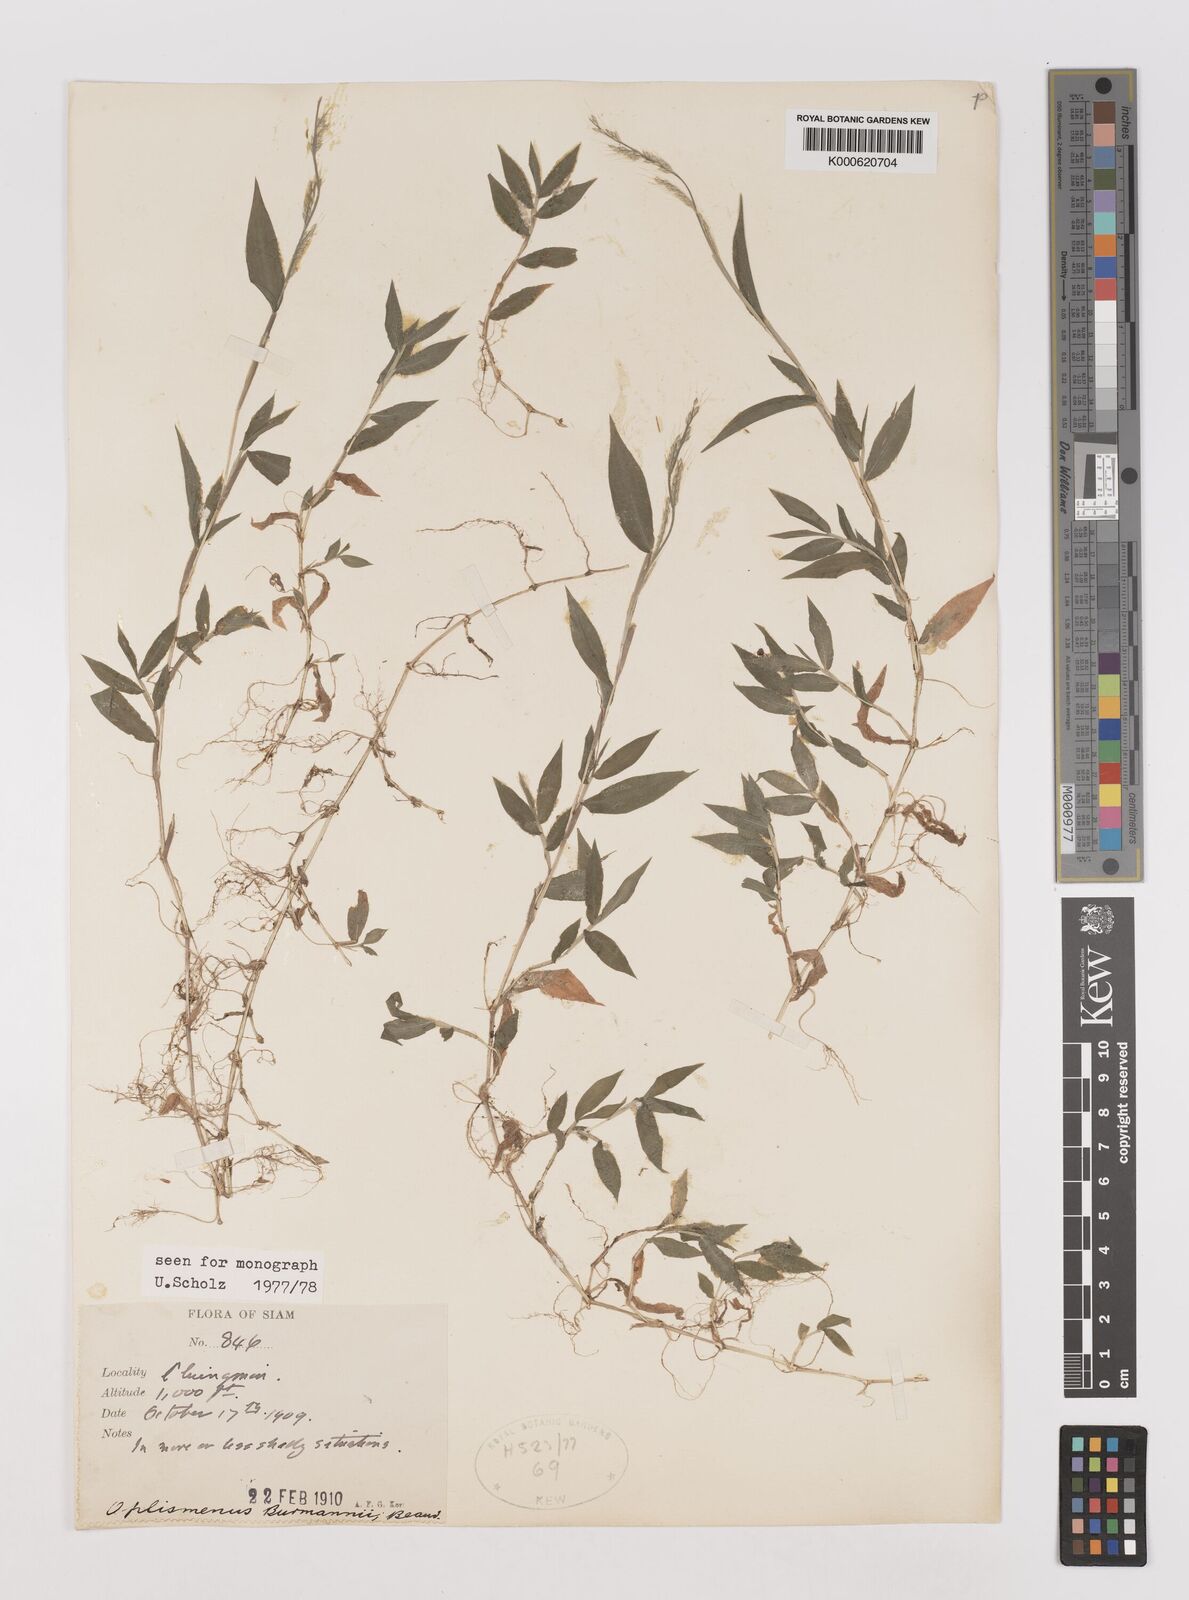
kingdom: Plantae
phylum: Tracheophyta
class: Liliopsida
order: Poales
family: Poaceae
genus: Oplismenus
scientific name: Oplismenus burmanni
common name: Burmann's basketgrass
